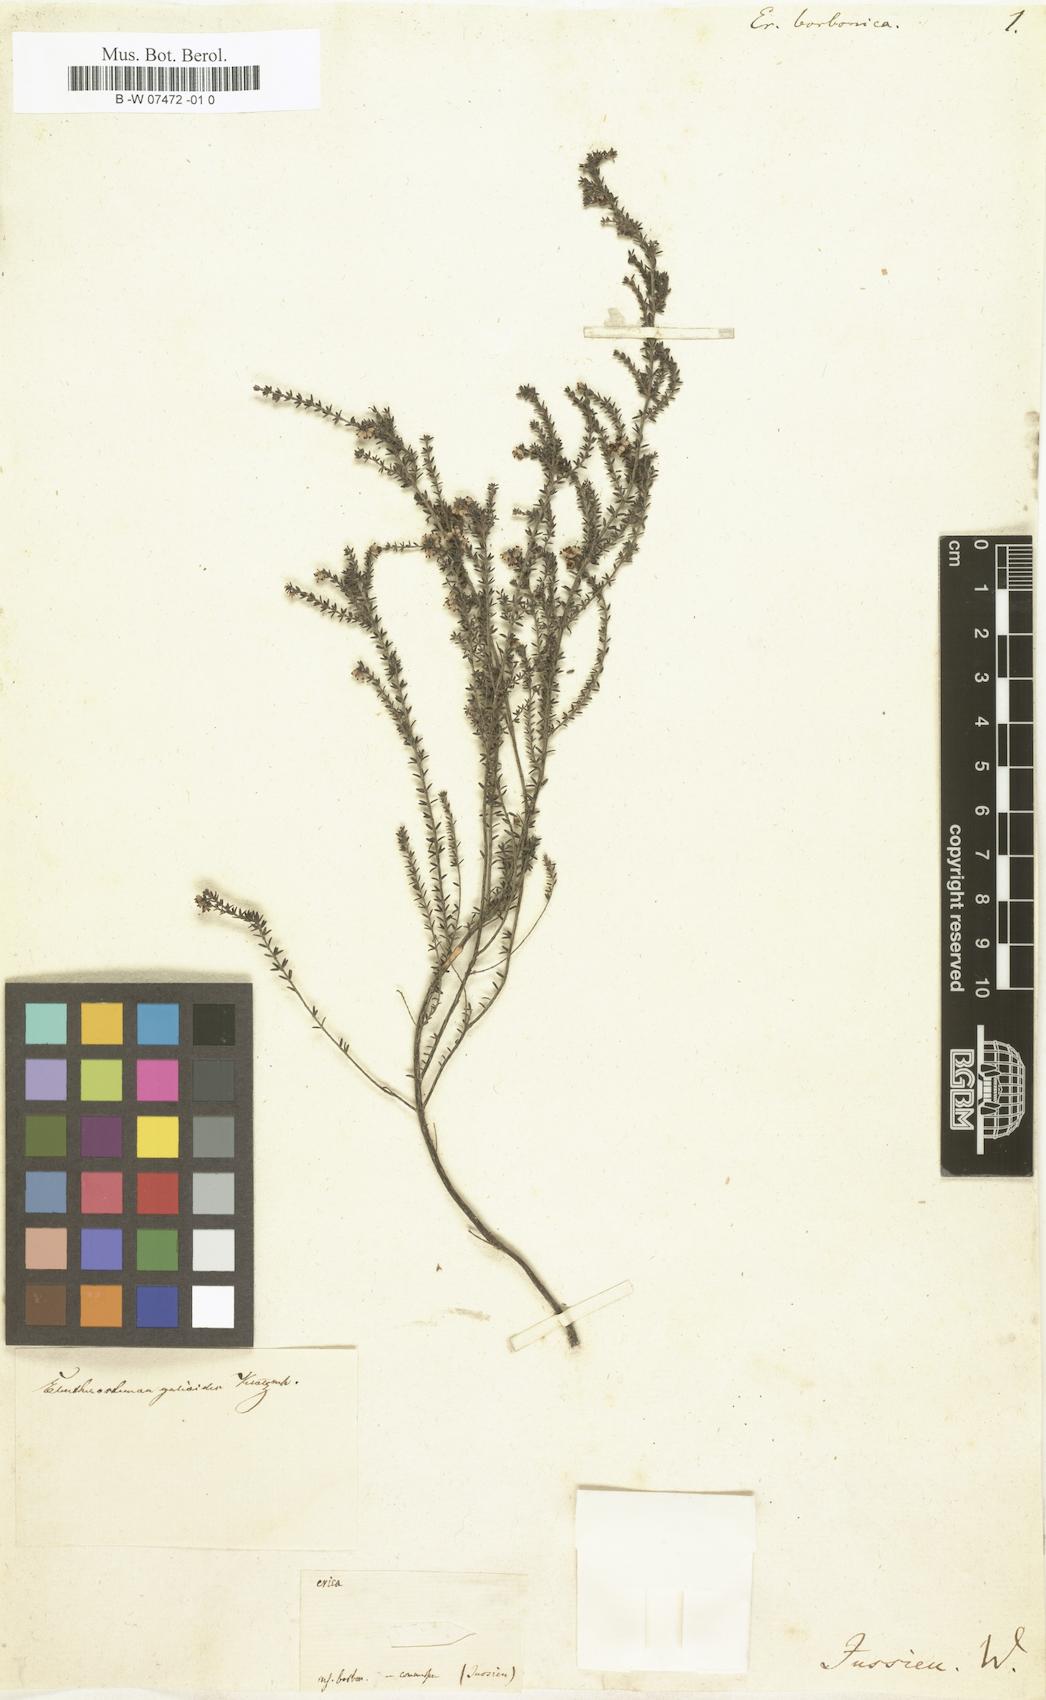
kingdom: Plantae
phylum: Tracheophyta
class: Magnoliopsida
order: Ericales
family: Ericaceae
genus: Erica
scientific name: Erica galioides
